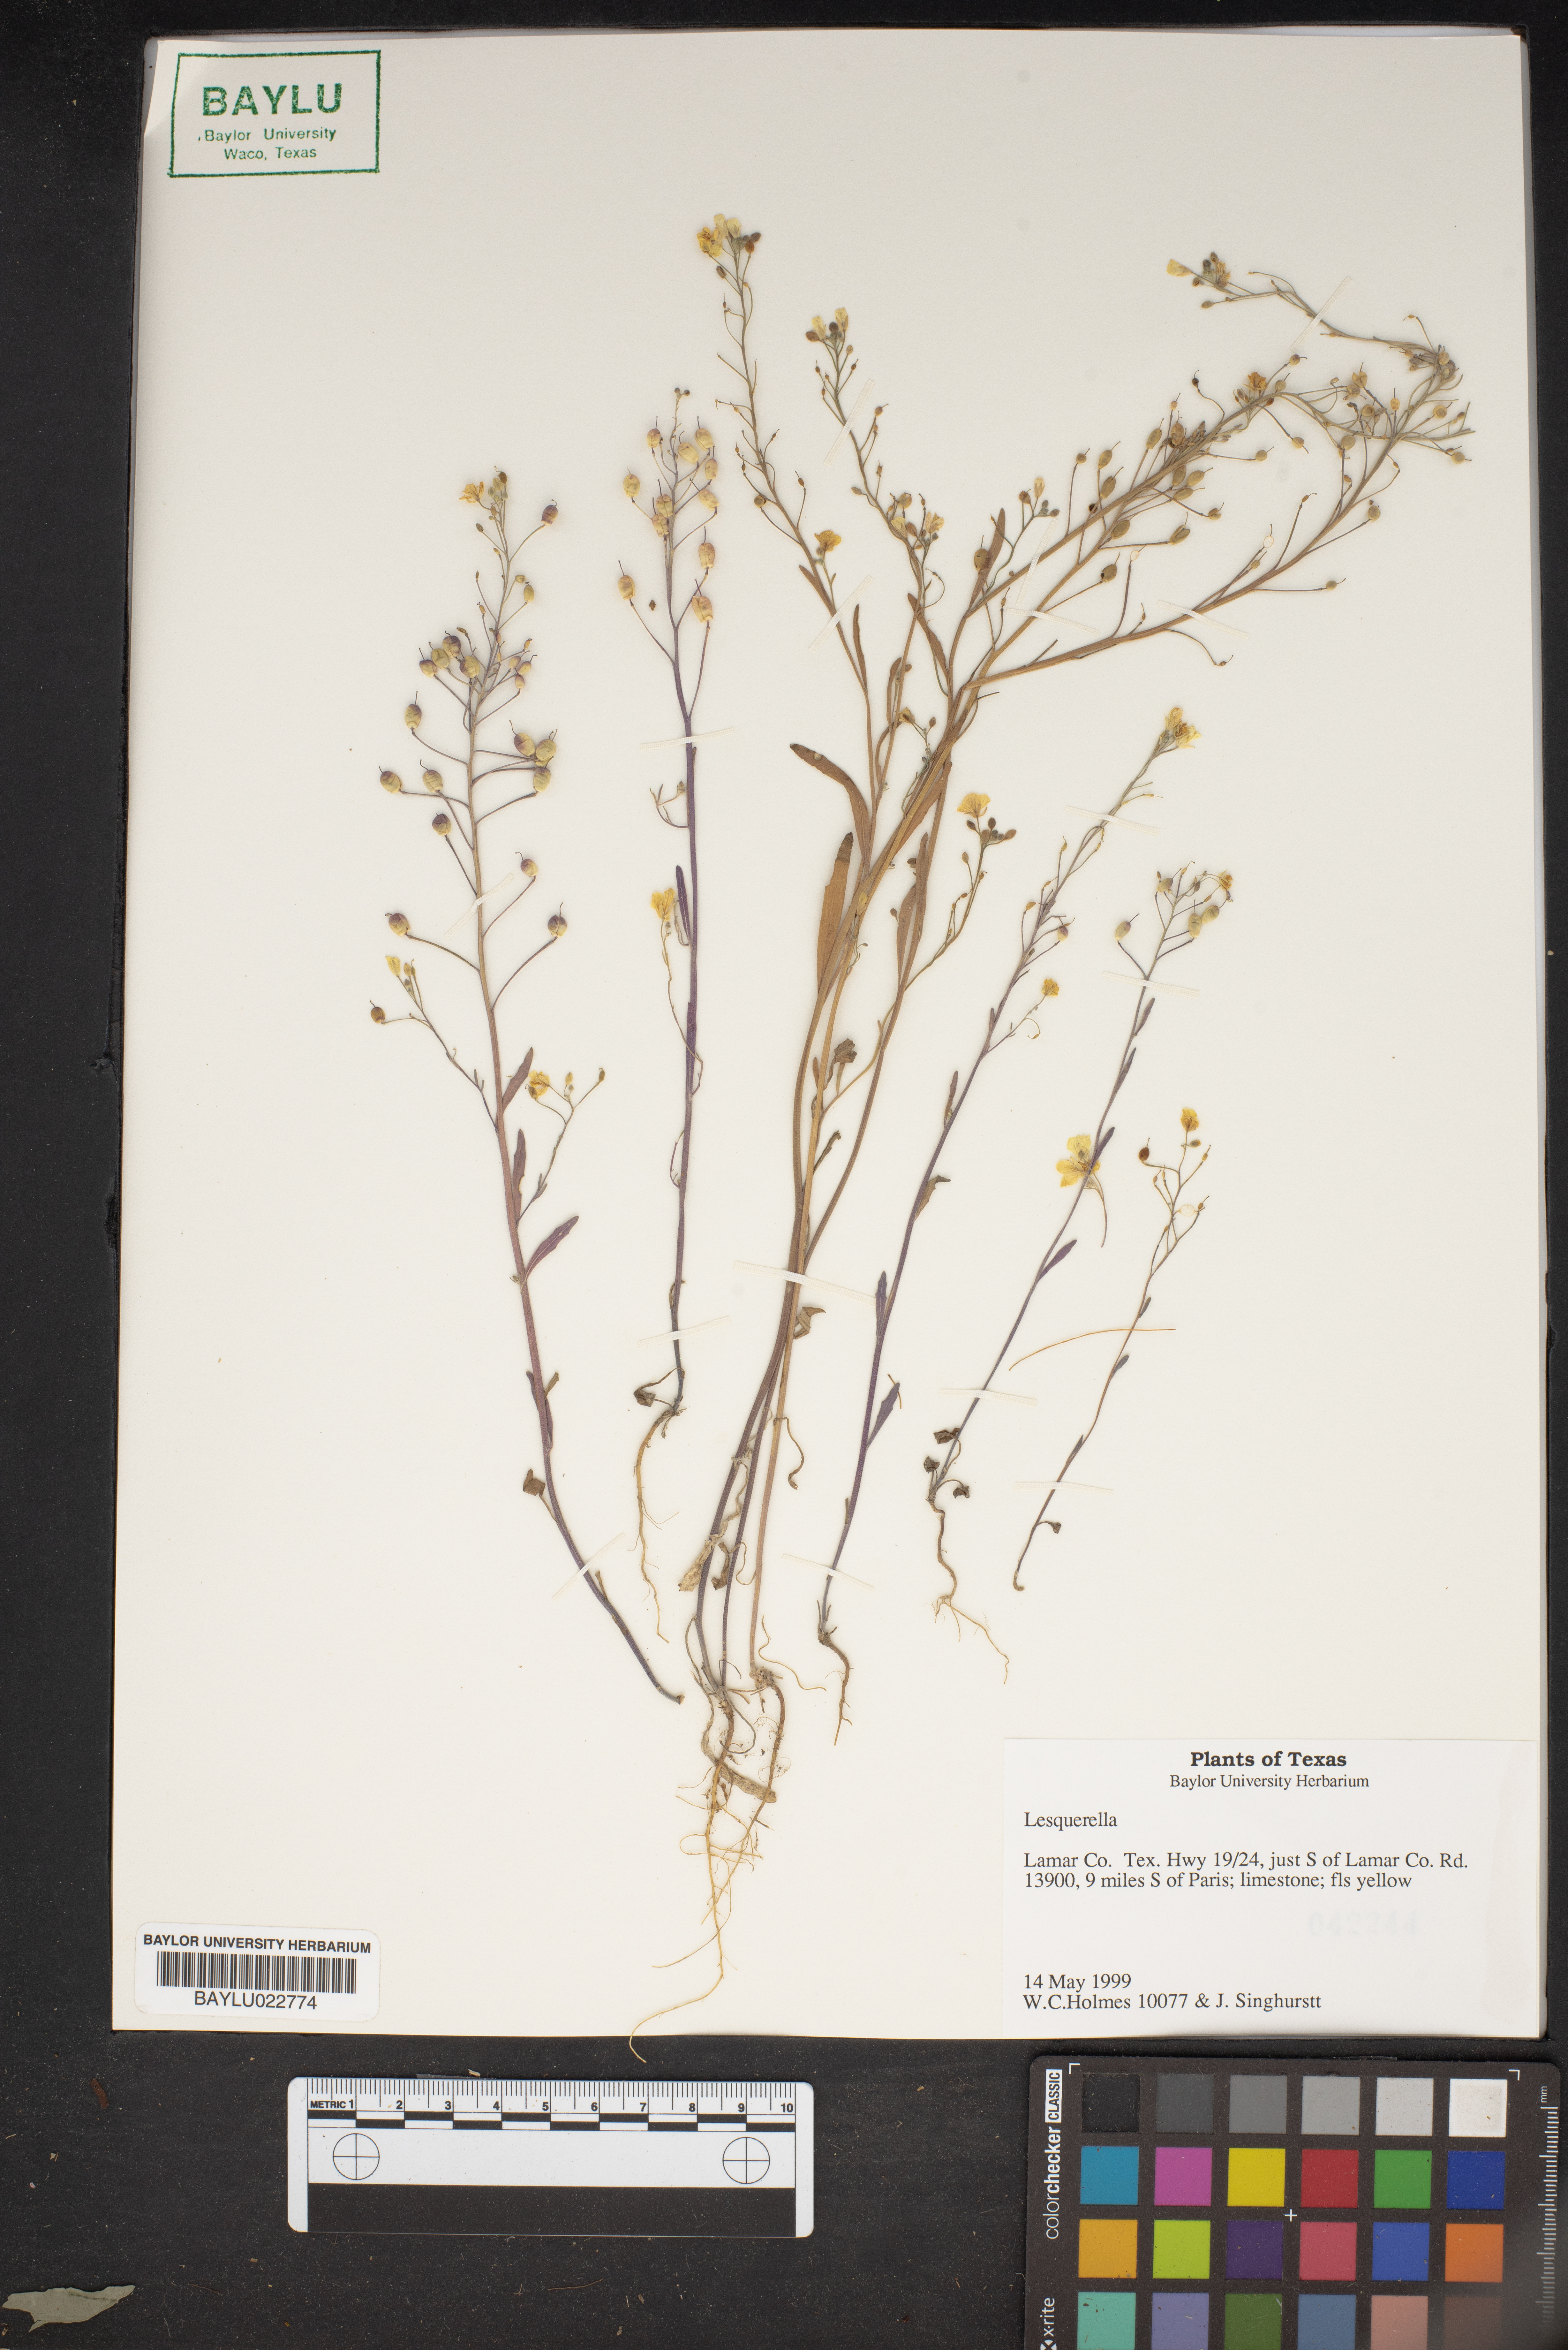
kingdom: Chromista
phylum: Cercozoa
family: Psammonobiotidae
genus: Lesquerella
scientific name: Lesquerella
